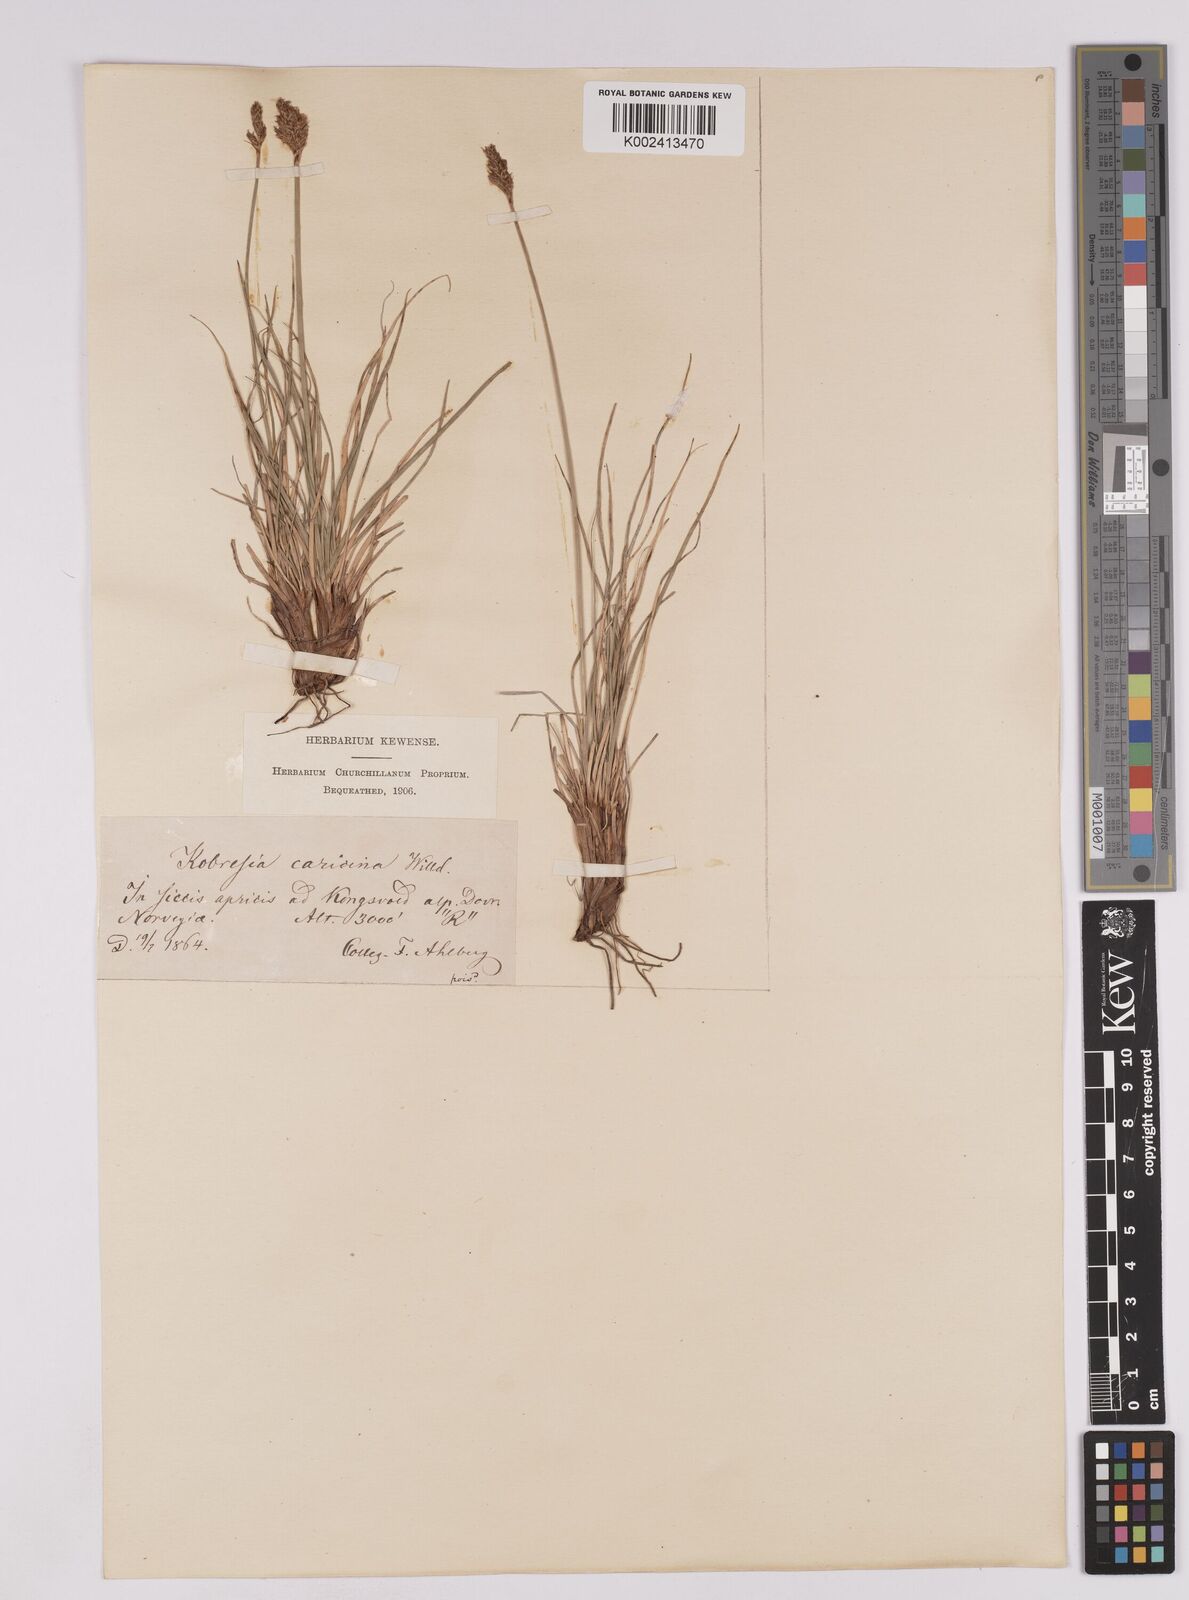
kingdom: Plantae
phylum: Tracheophyta
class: Liliopsida
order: Poales
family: Cyperaceae
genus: Carex
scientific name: Carex simpliciuscula
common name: Simple bog sedge
